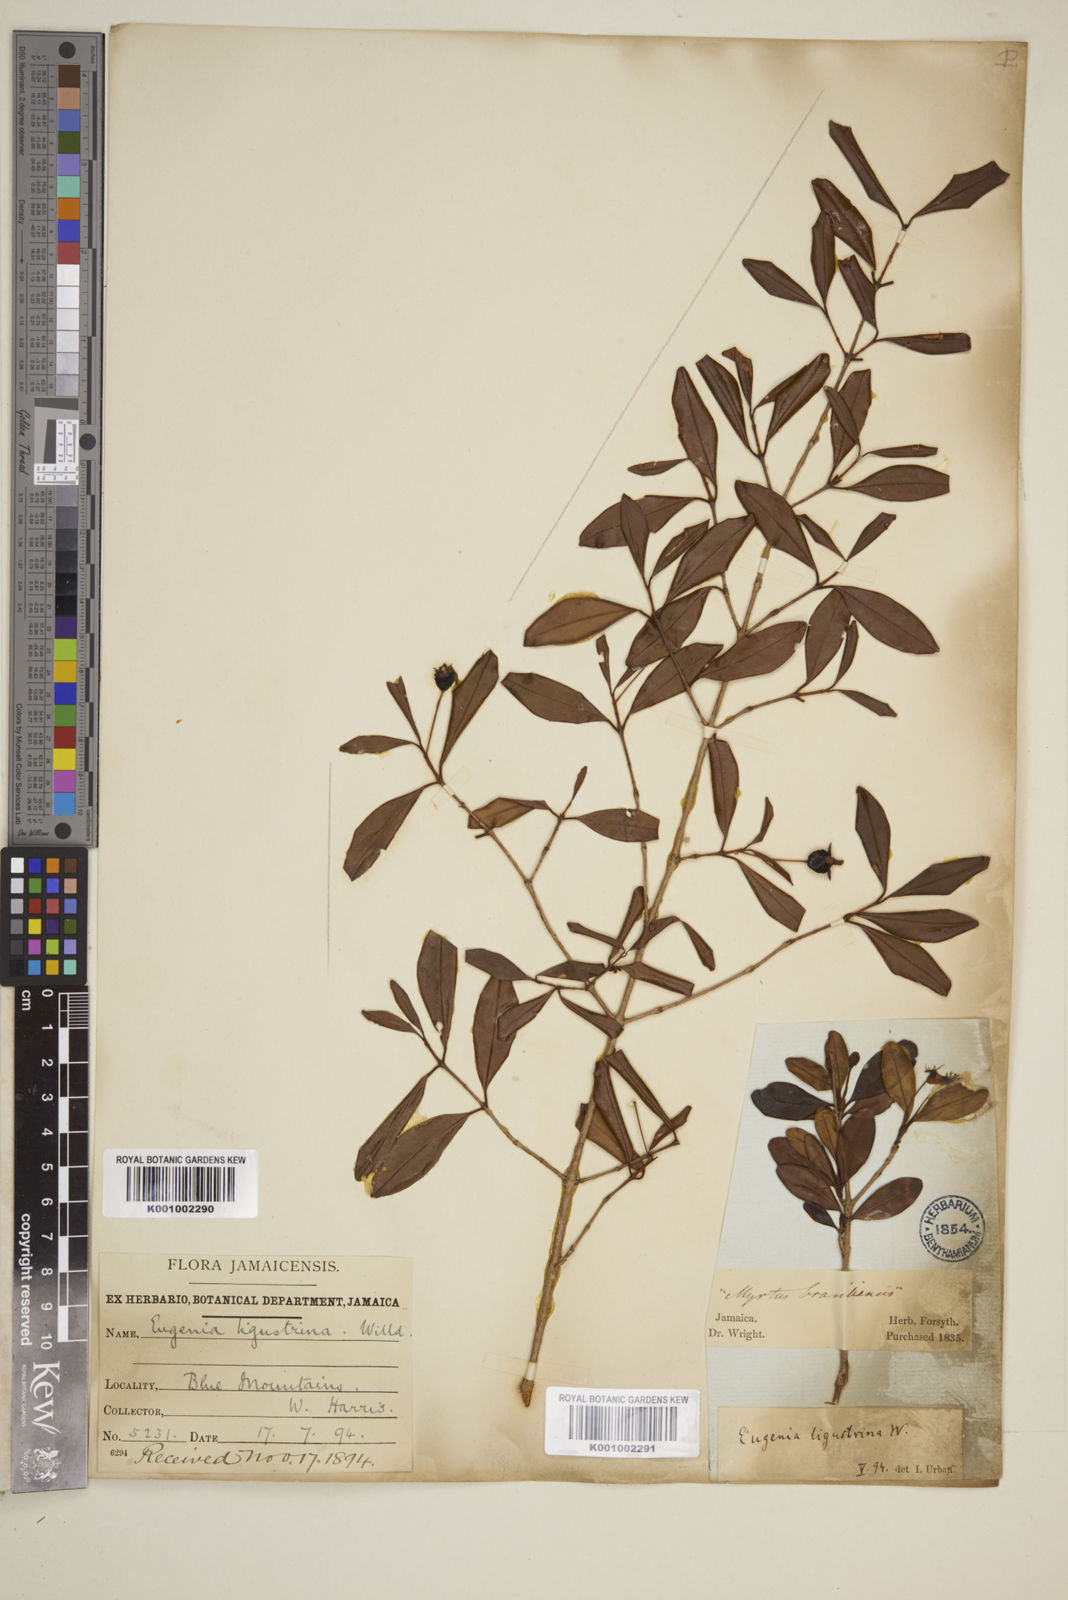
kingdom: Plantae
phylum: Tracheophyta
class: Magnoliopsida
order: Myrtales
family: Myrtaceae
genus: Eugenia
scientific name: Eugenia ligustrina
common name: Privet stopper
